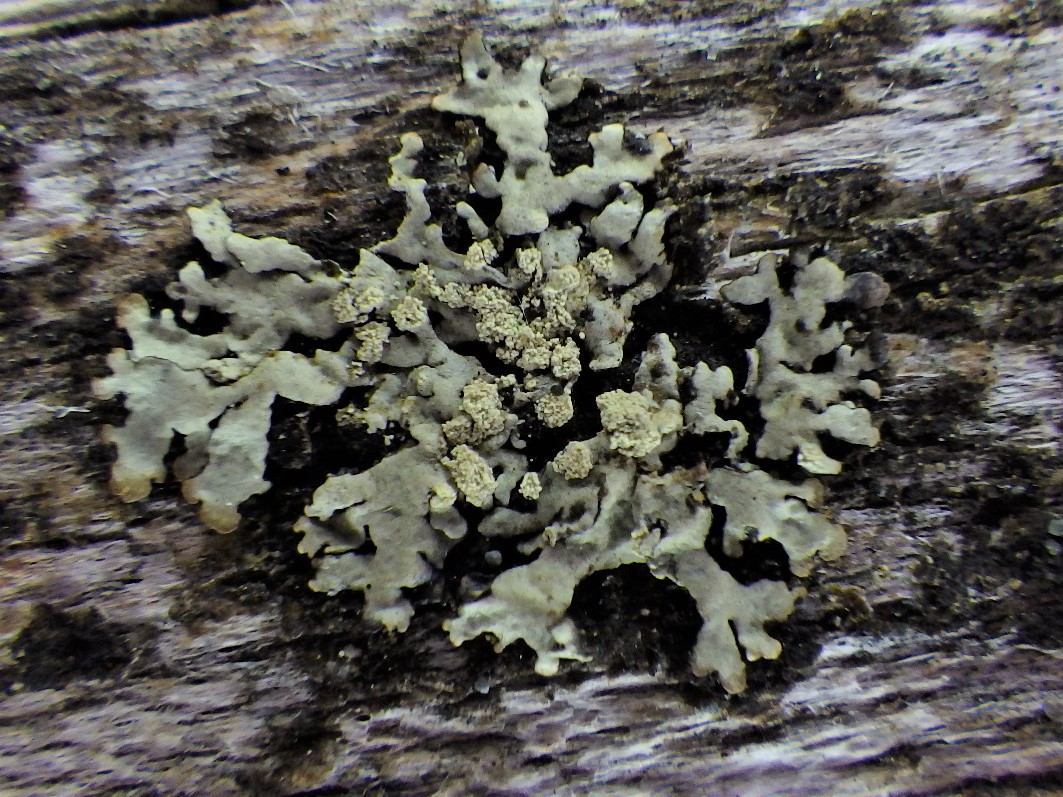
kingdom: Fungi
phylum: Ascomycota
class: Lecanoromycetes
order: Lecanorales
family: Parmeliaceae
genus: Parmeliopsis
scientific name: Parmeliopsis ambigua
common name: gul stolpelav
